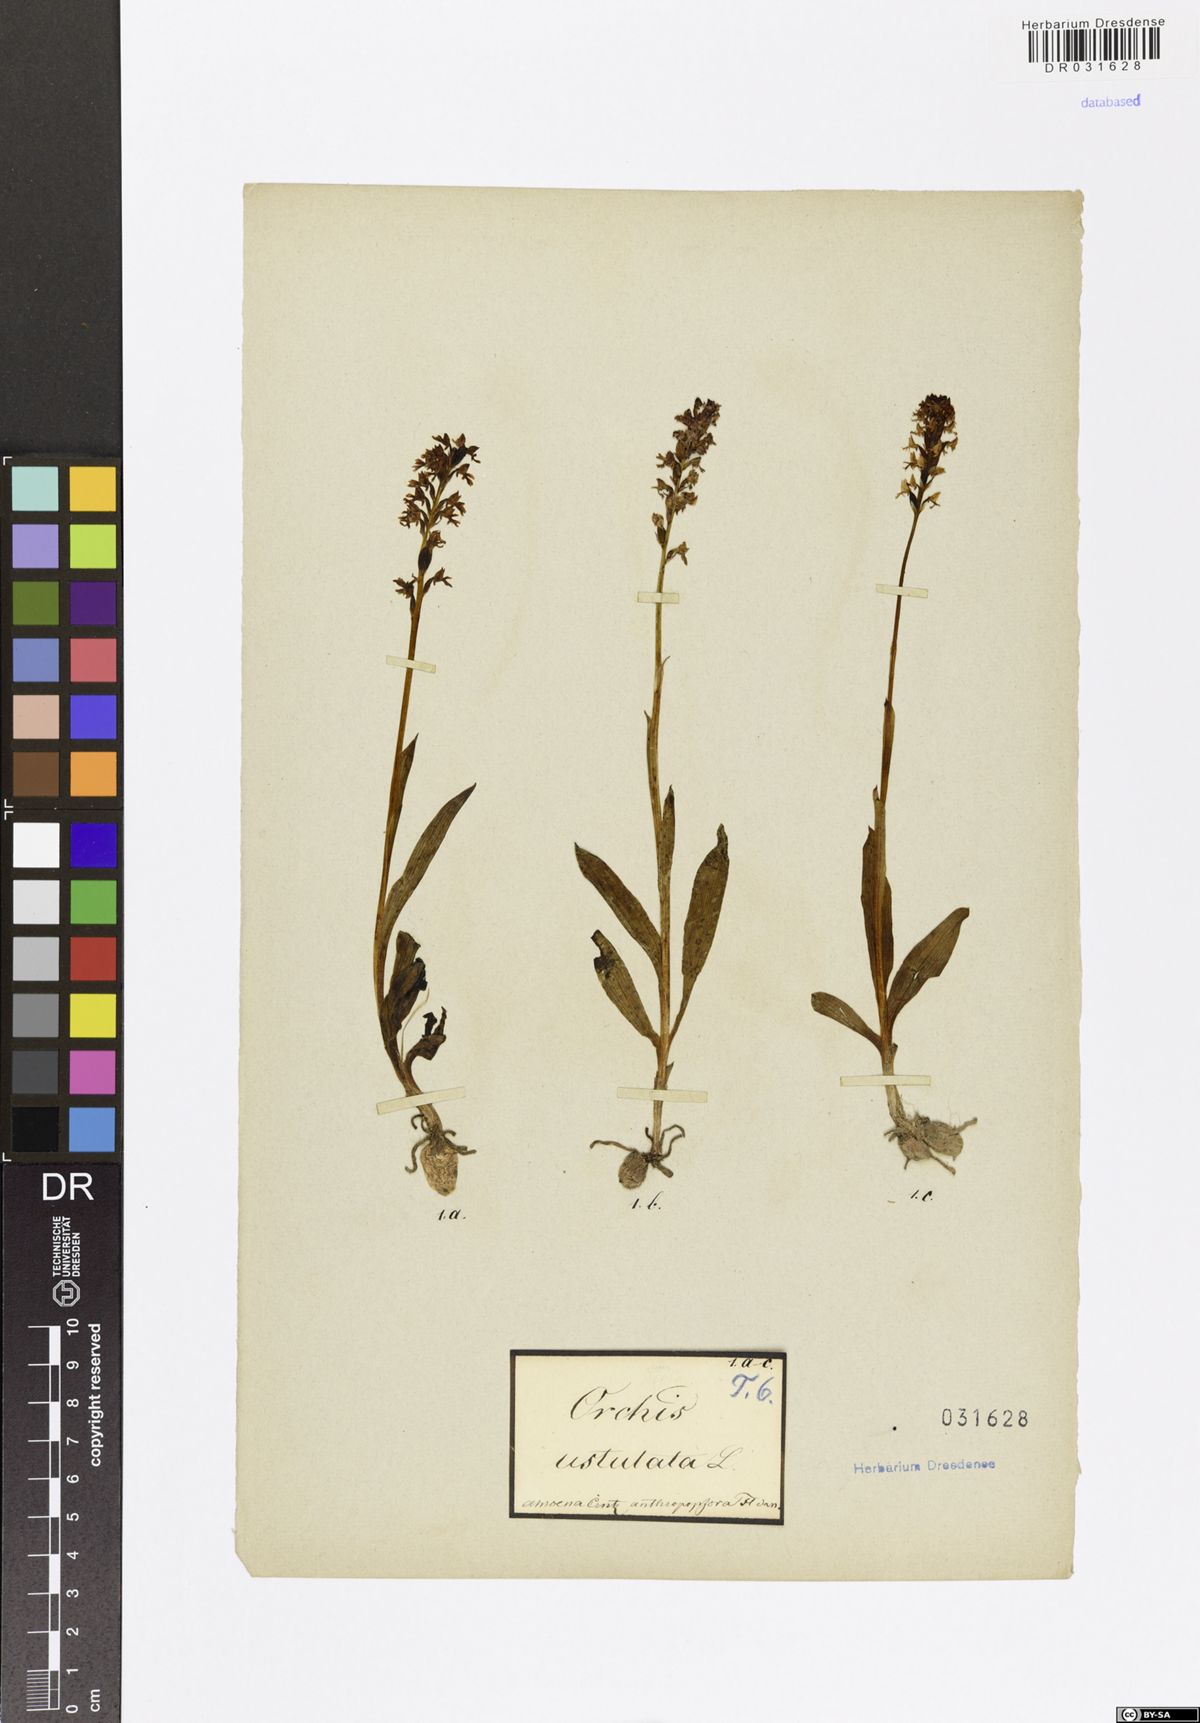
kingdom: Plantae
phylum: Tracheophyta
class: Liliopsida
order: Asparagales
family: Orchidaceae
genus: Neotinea
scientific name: Neotinea ustulata
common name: Burnt orchid
